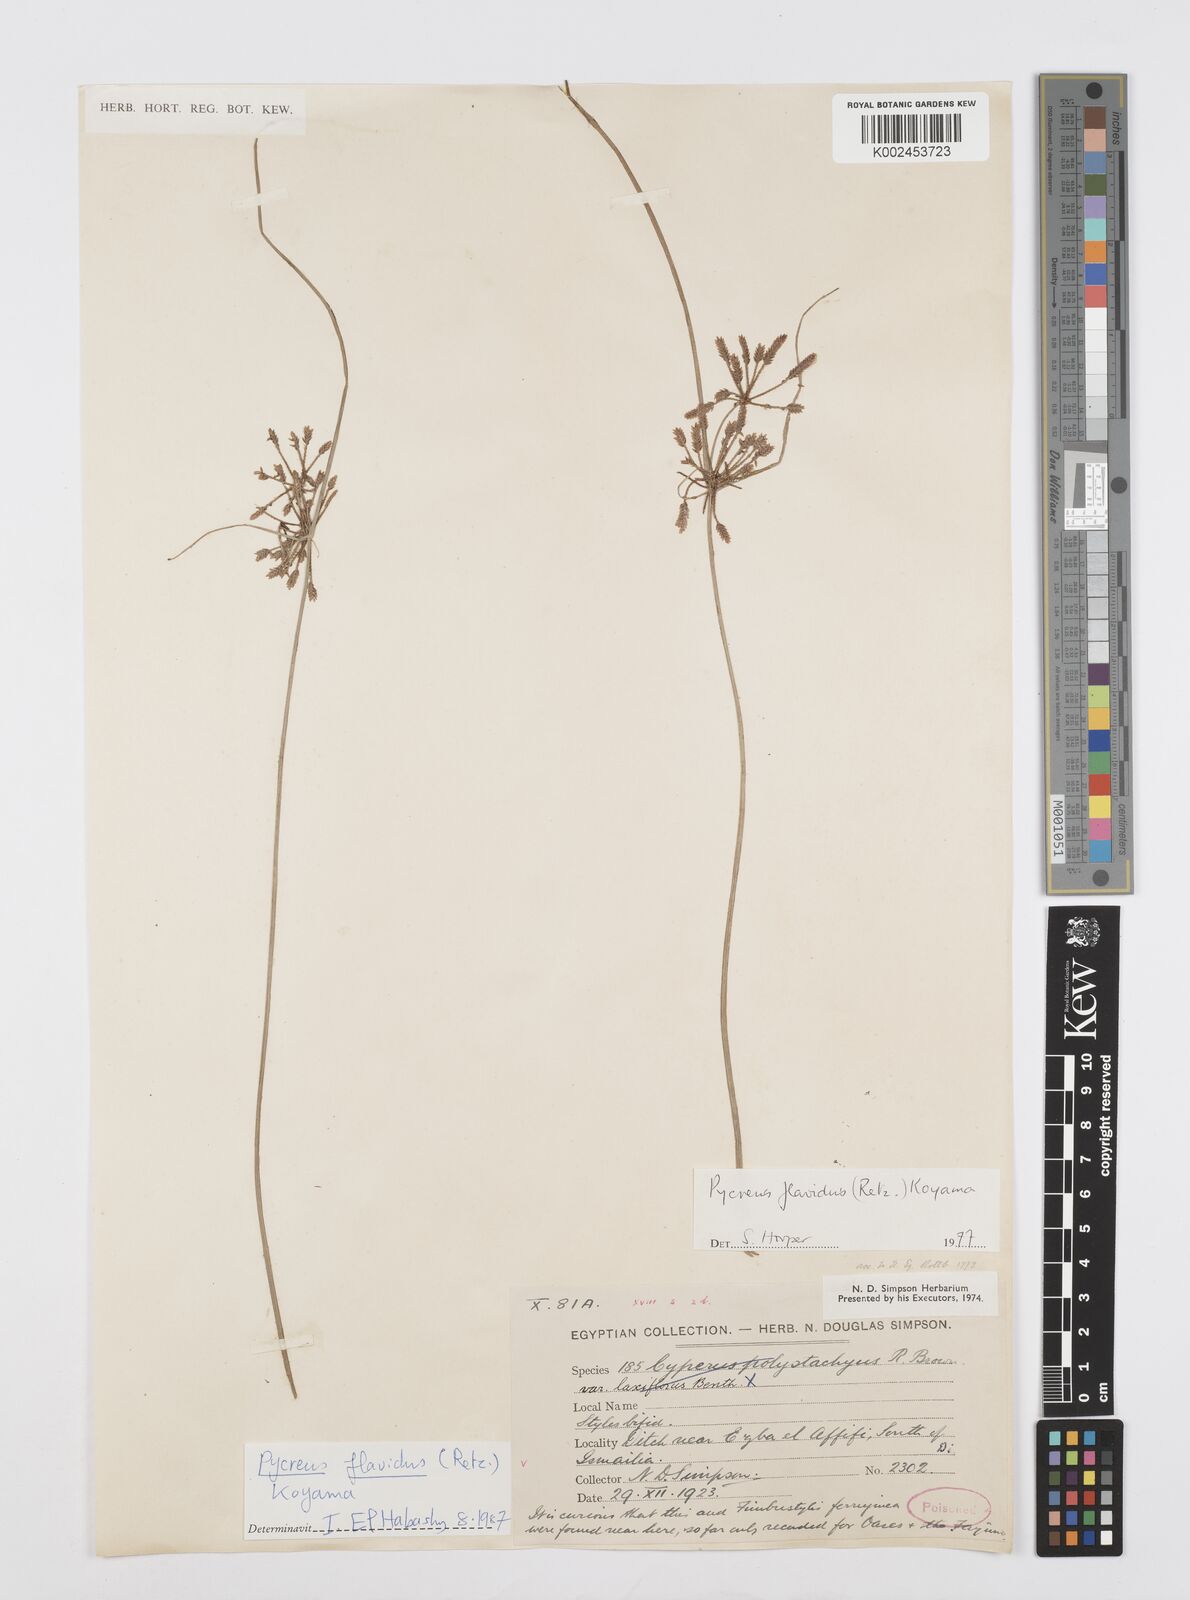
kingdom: Plantae
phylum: Tracheophyta
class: Liliopsida
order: Poales
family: Cyperaceae
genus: Cyperus
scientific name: Cyperus flavidus
